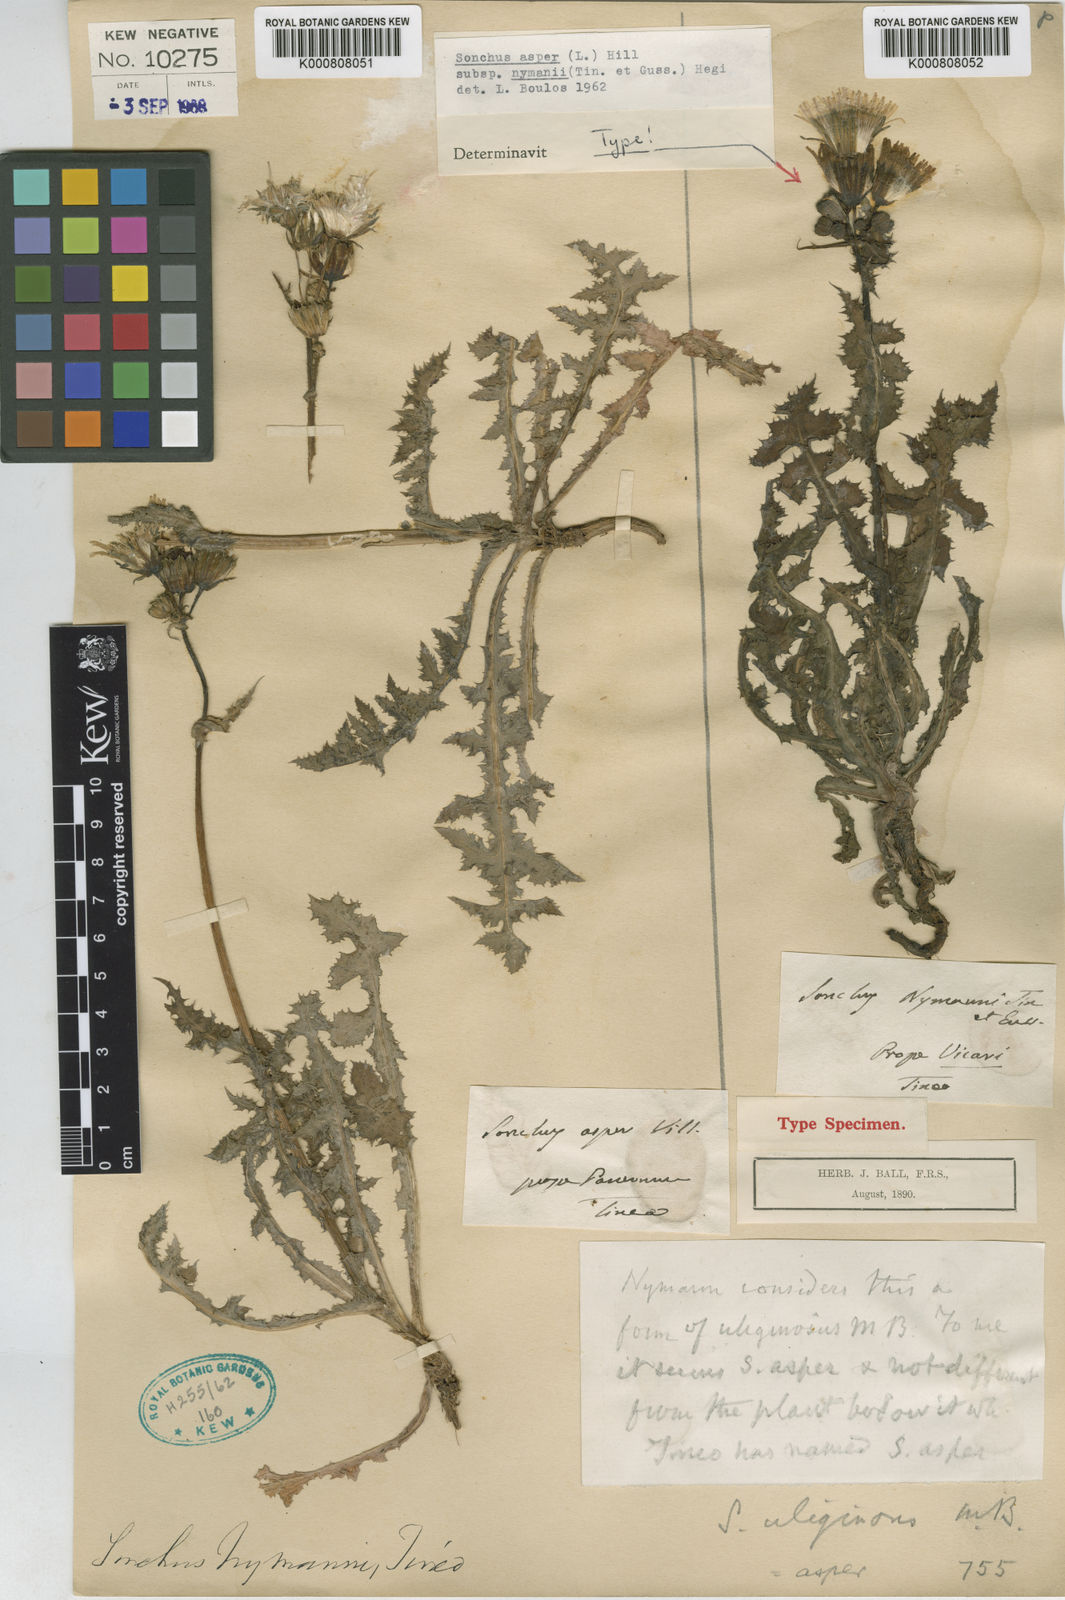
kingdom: Plantae
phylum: Tracheophyta
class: Magnoliopsida
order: Asterales
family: Asteraceae
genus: Sonchus
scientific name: Sonchus arvensis
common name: Perennial sow-thistle
